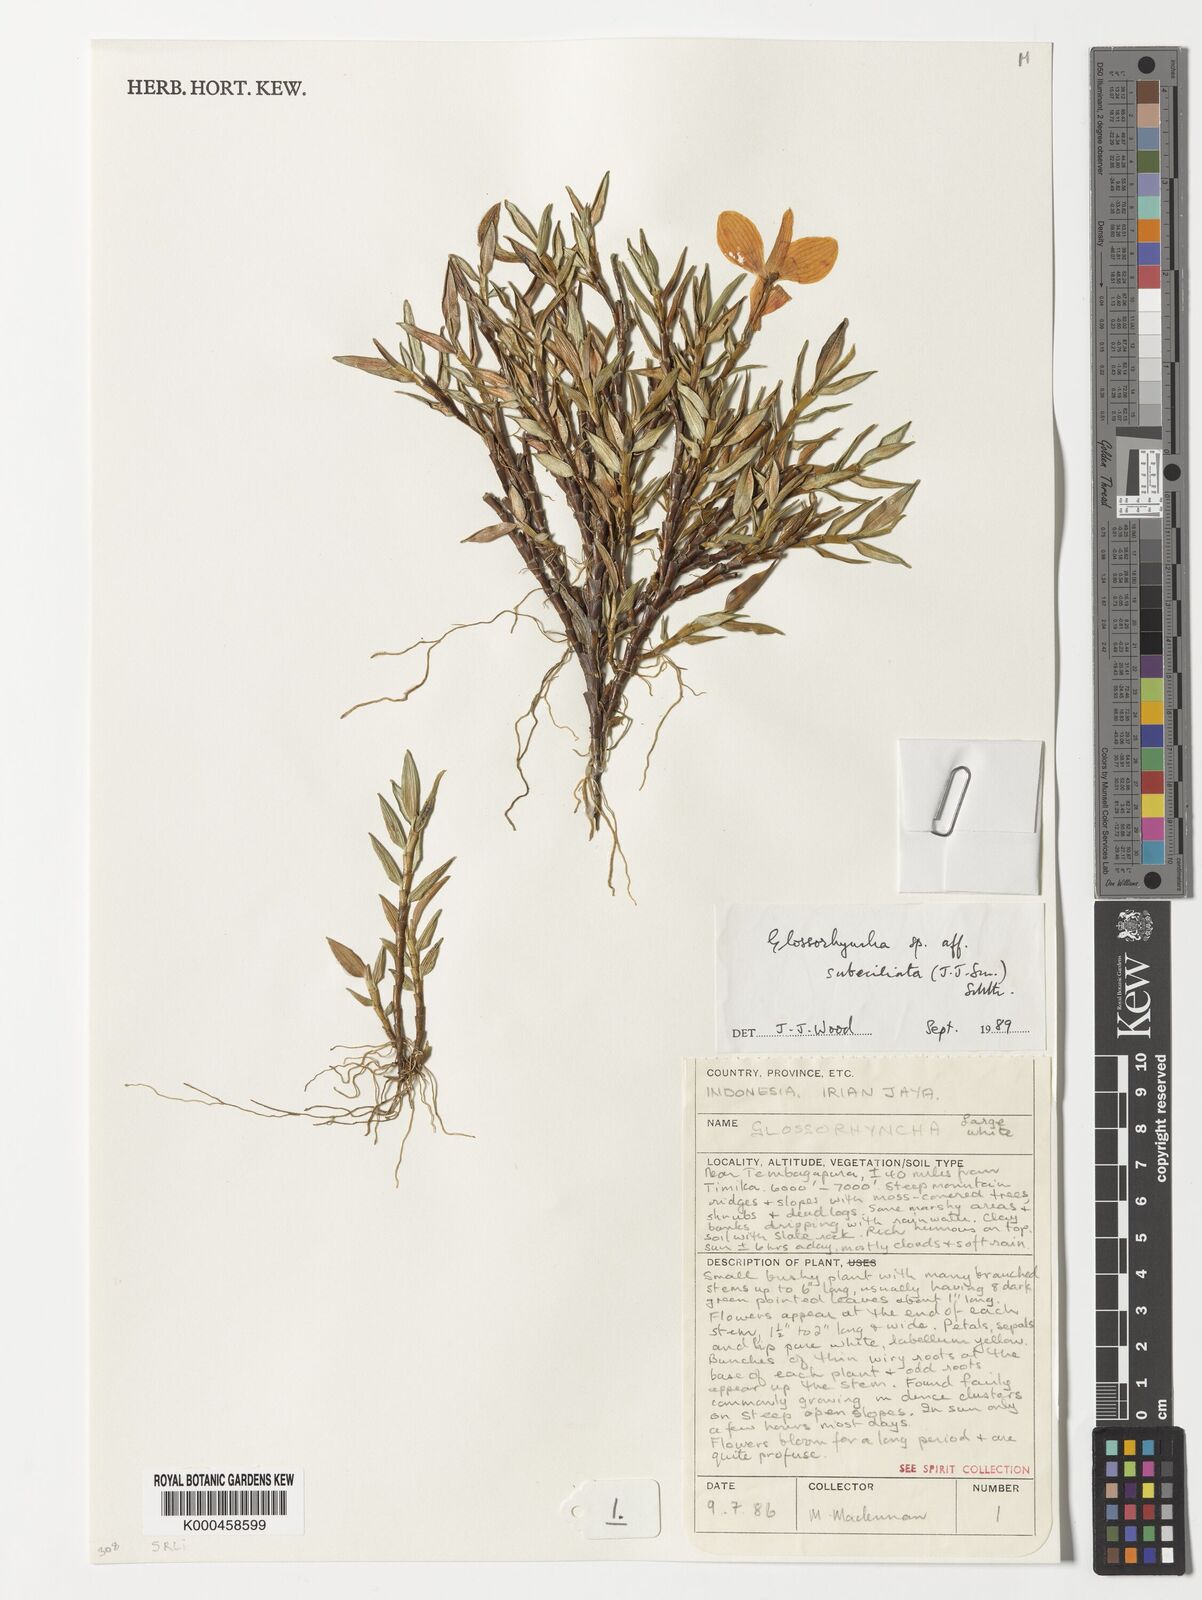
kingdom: Plantae
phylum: Tracheophyta
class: Liliopsida
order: Asparagales
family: Orchidaceae
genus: Glomera
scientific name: Glomera compressa
